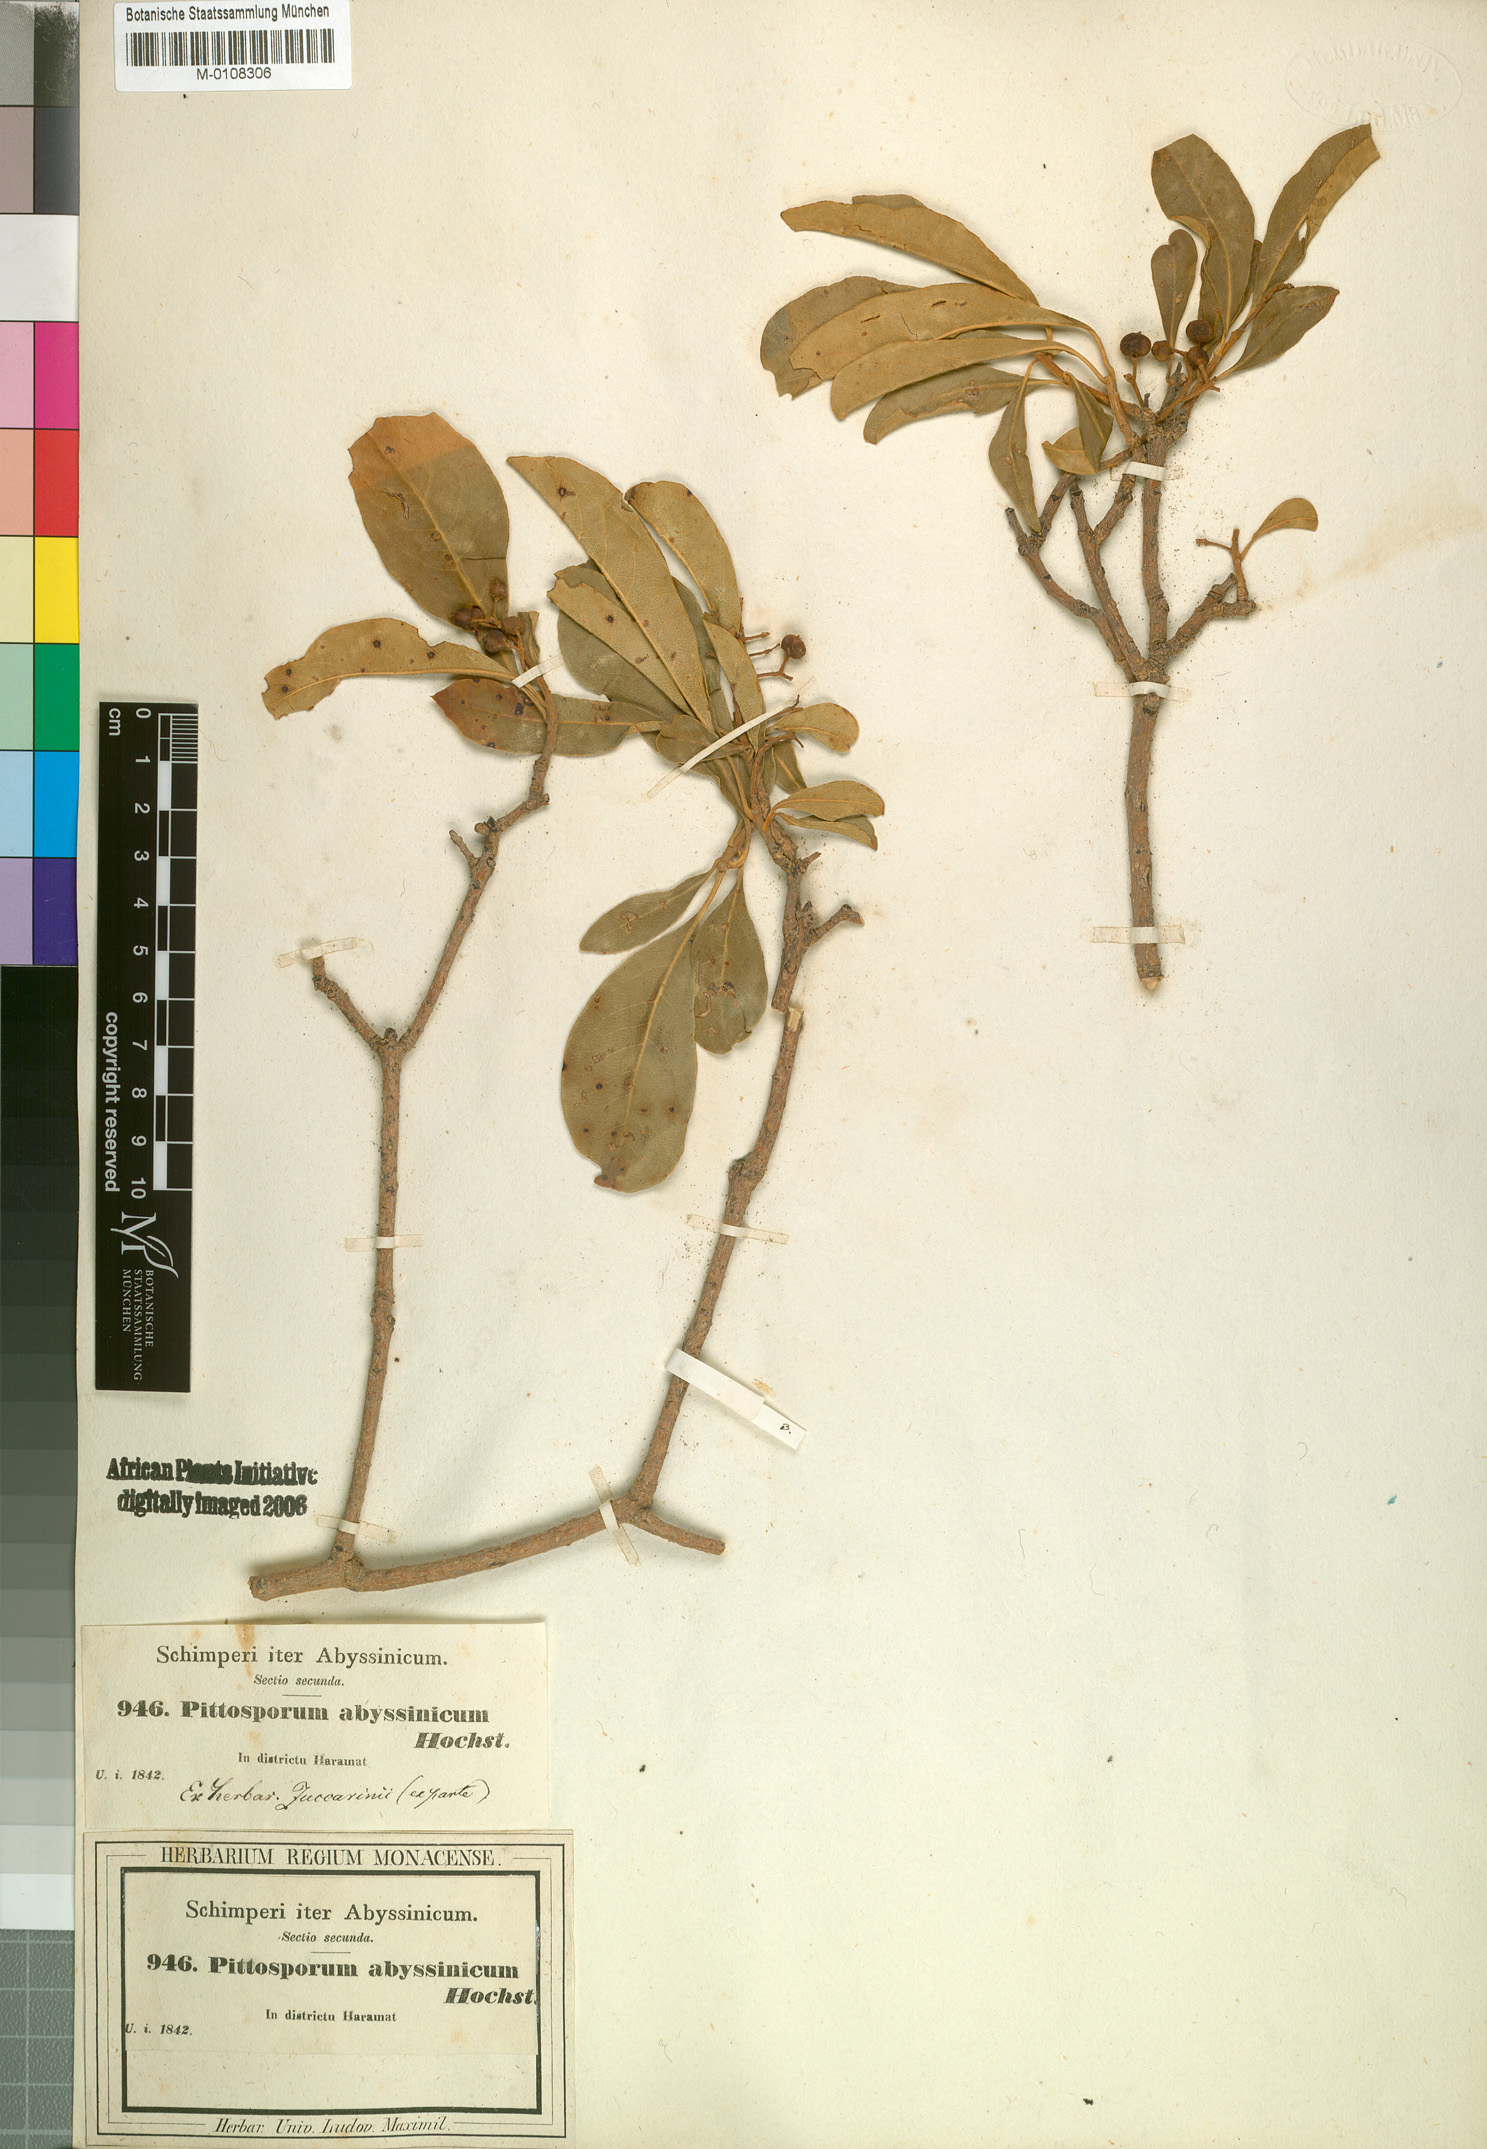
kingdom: Plantae
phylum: Tracheophyta
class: Magnoliopsida
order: Apiales
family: Pittosporaceae
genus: Pittosporum
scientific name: Pittosporum abyssinicum
